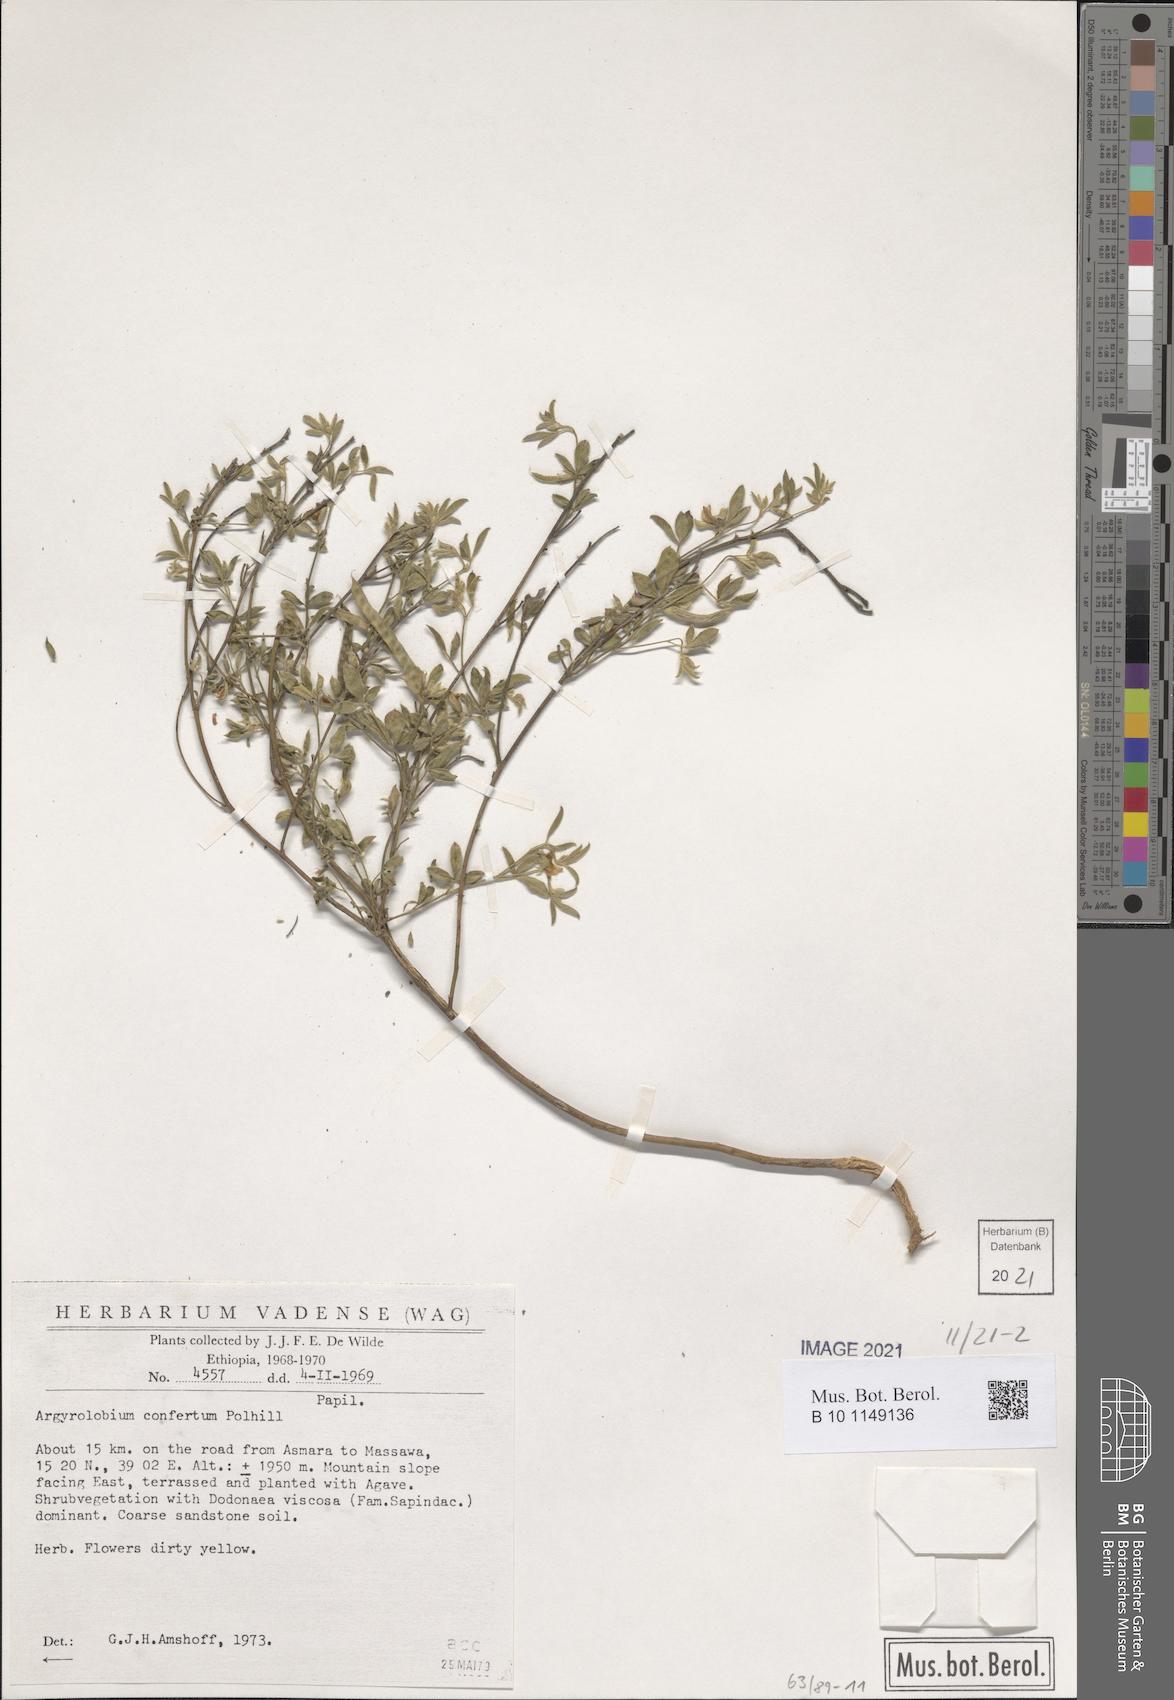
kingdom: Plantae
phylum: Tracheophyta
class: Magnoliopsida
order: Fabales
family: Fabaceae
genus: Argyrolobium
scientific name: Argyrolobium confertum
